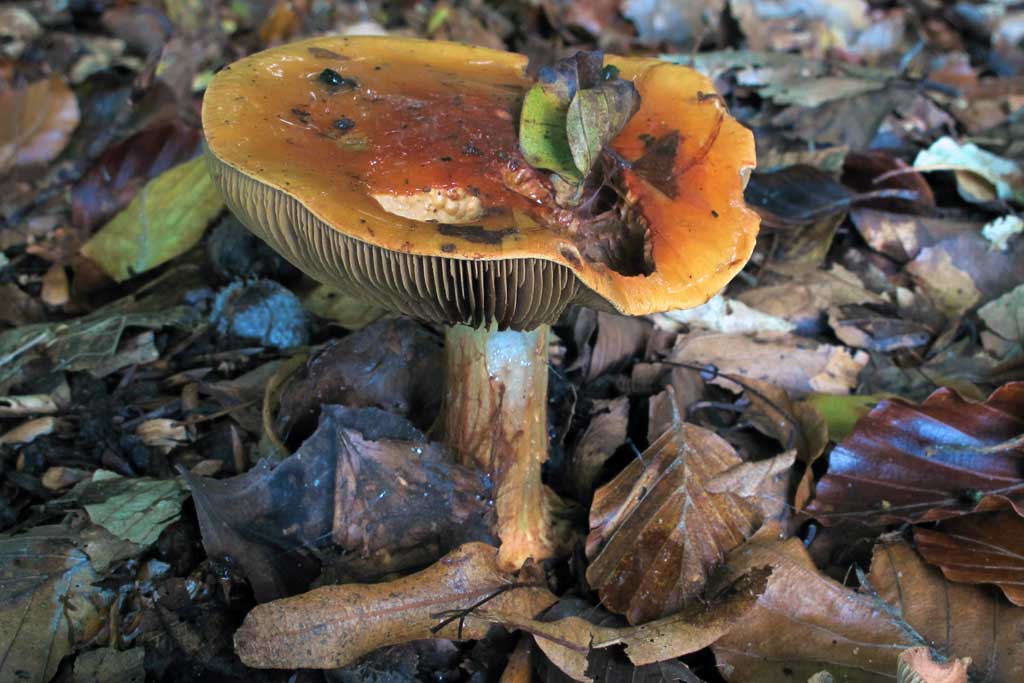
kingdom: Fungi
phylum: Basidiomycota
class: Agaricomycetes
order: Agaricales
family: Cortinariaceae
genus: Cortinarius
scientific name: Cortinarius bergeronii
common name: prægtig slørhat
